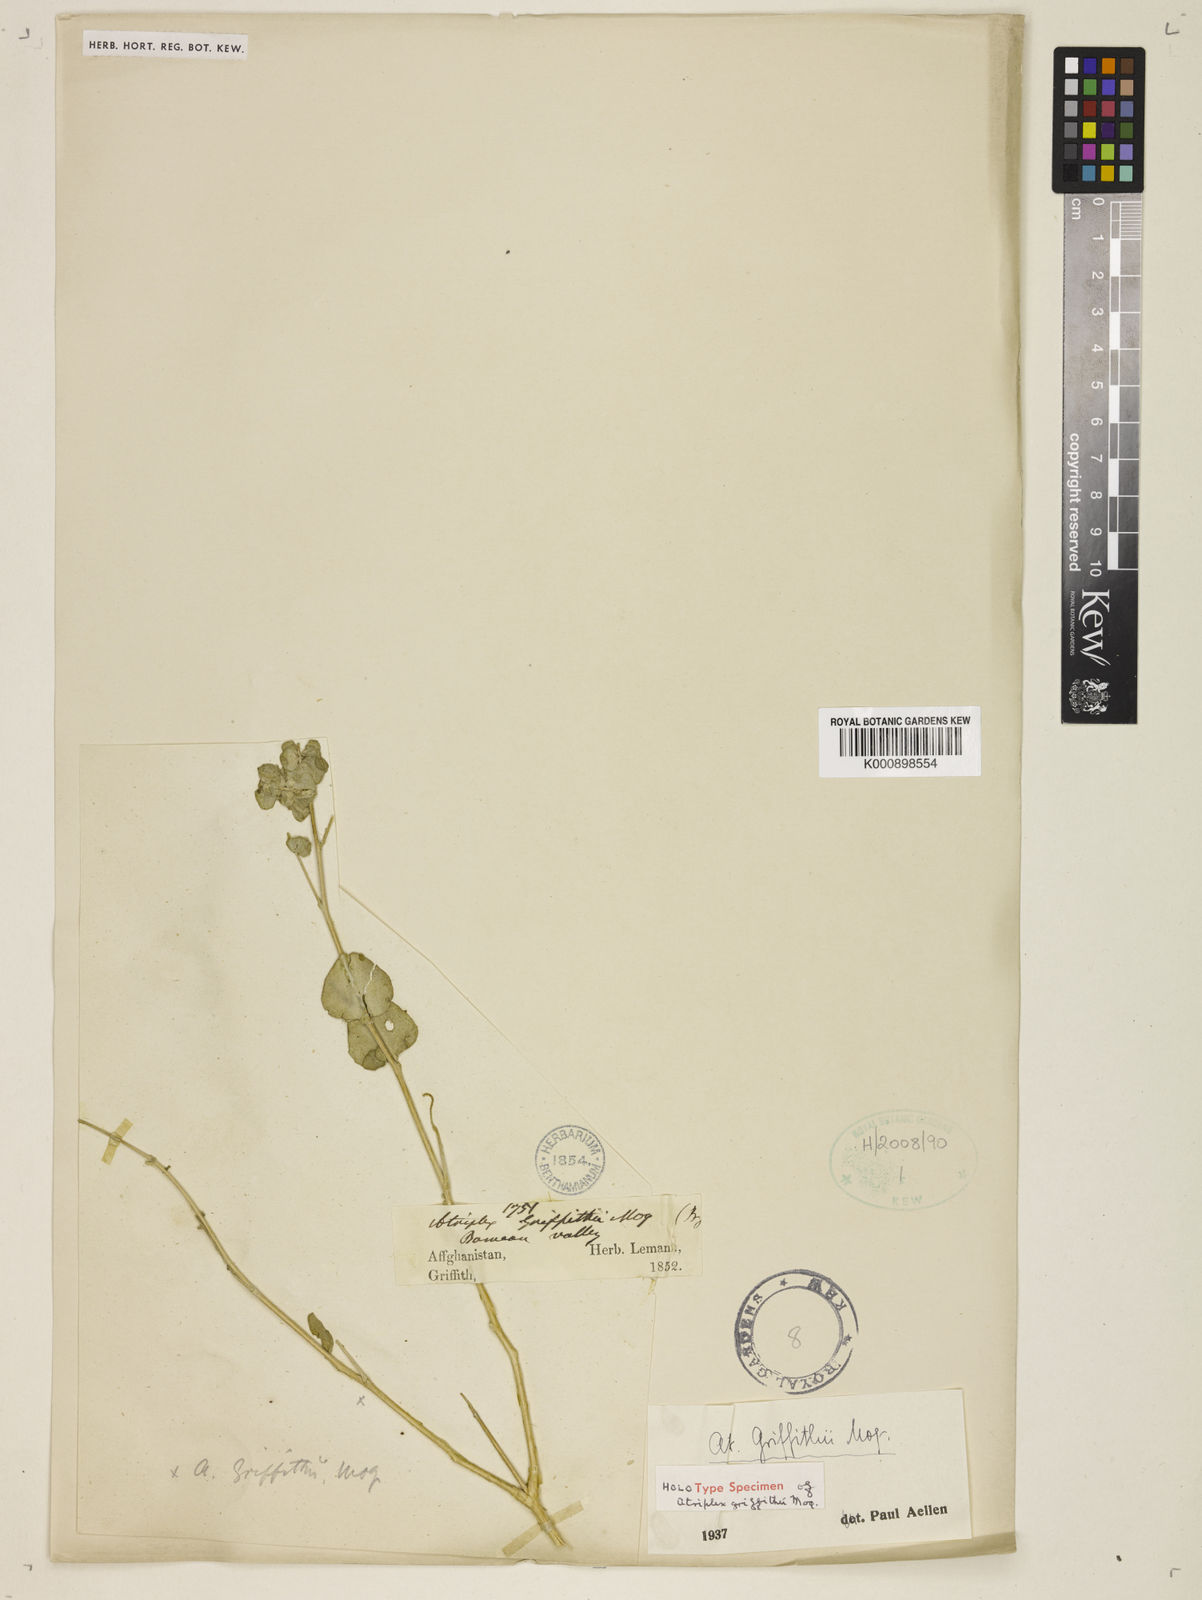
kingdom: Plantae
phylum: Tracheophyta
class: Magnoliopsida
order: Caryophyllales
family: Amaranthaceae
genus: Atriplex
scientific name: Atriplex griffithii
